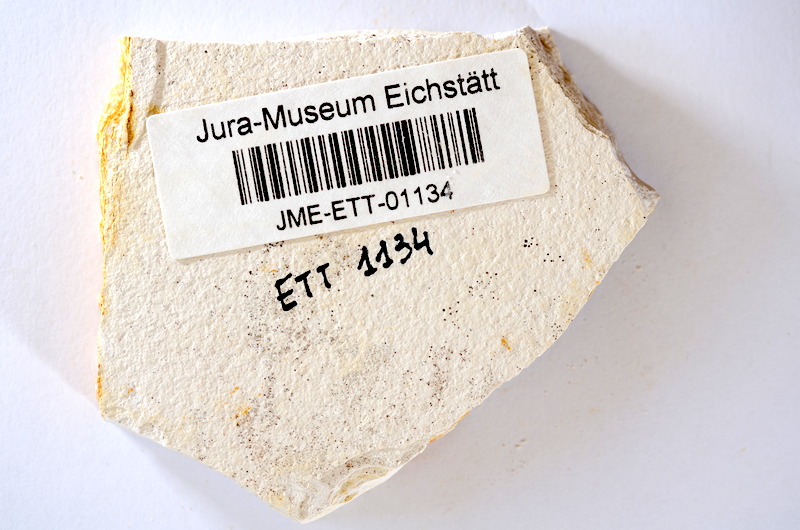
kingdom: Animalia
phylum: Chordata
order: Salmoniformes
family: Orthogonikleithridae
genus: Orthogonikleithrus
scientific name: Orthogonikleithrus hoelli
